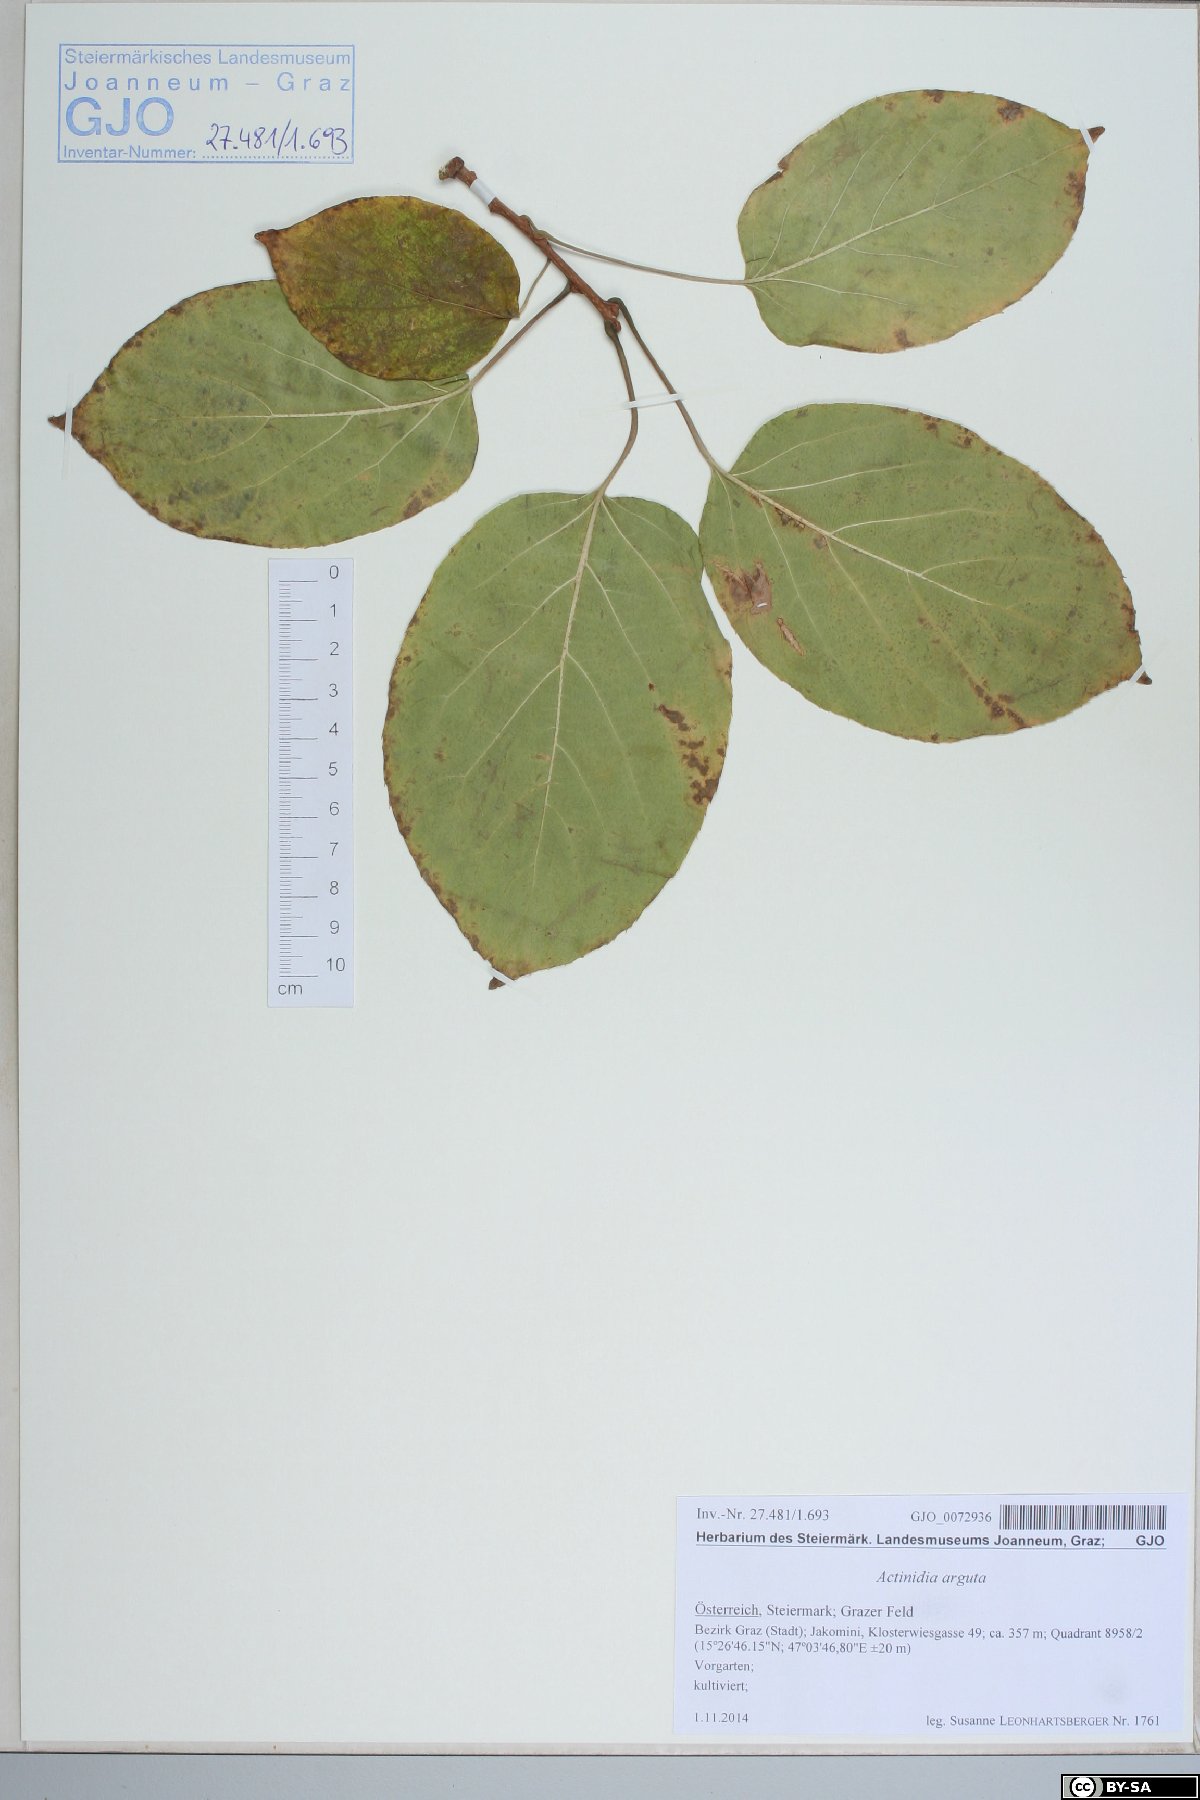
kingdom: Plantae
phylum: Tracheophyta
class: Magnoliopsida
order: Ericales
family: Actinidiaceae
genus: Actinidia
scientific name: Actinidia arguta
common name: Tara vine
